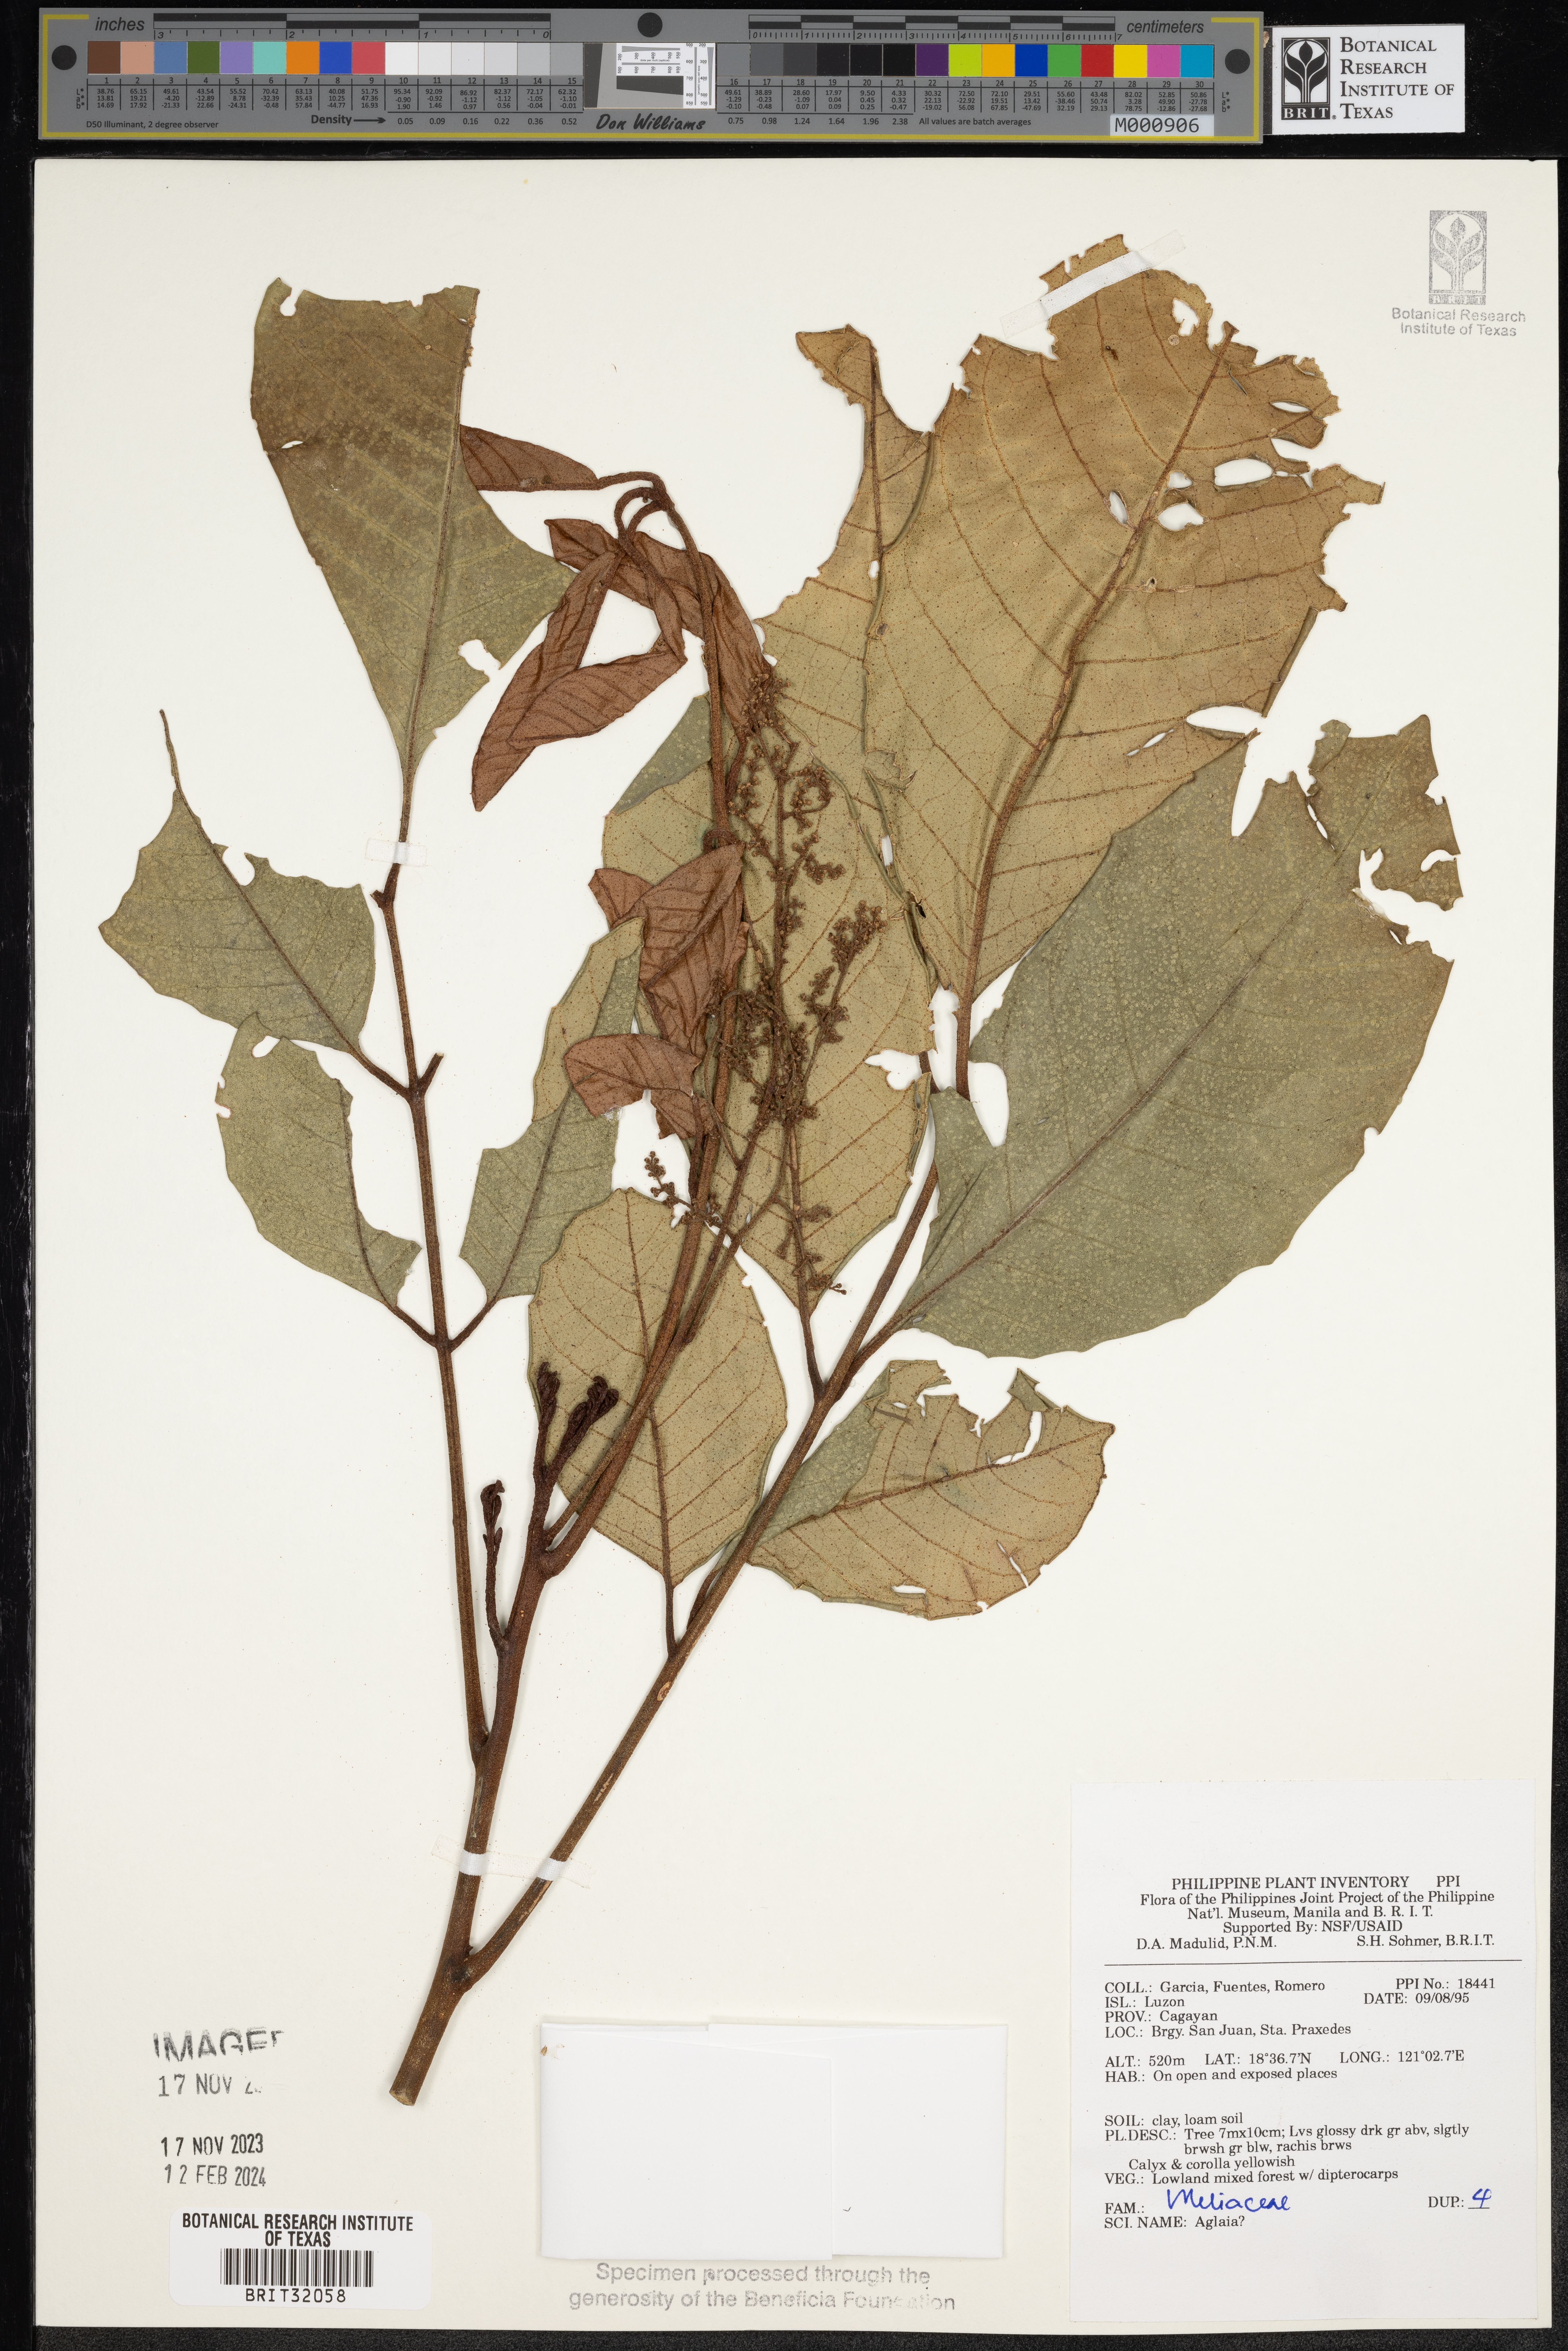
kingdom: Plantae
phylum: Tracheophyta
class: Magnoliopsida
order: Sapindales
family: Meliaceae
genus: Aglaia
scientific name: Aglaia
